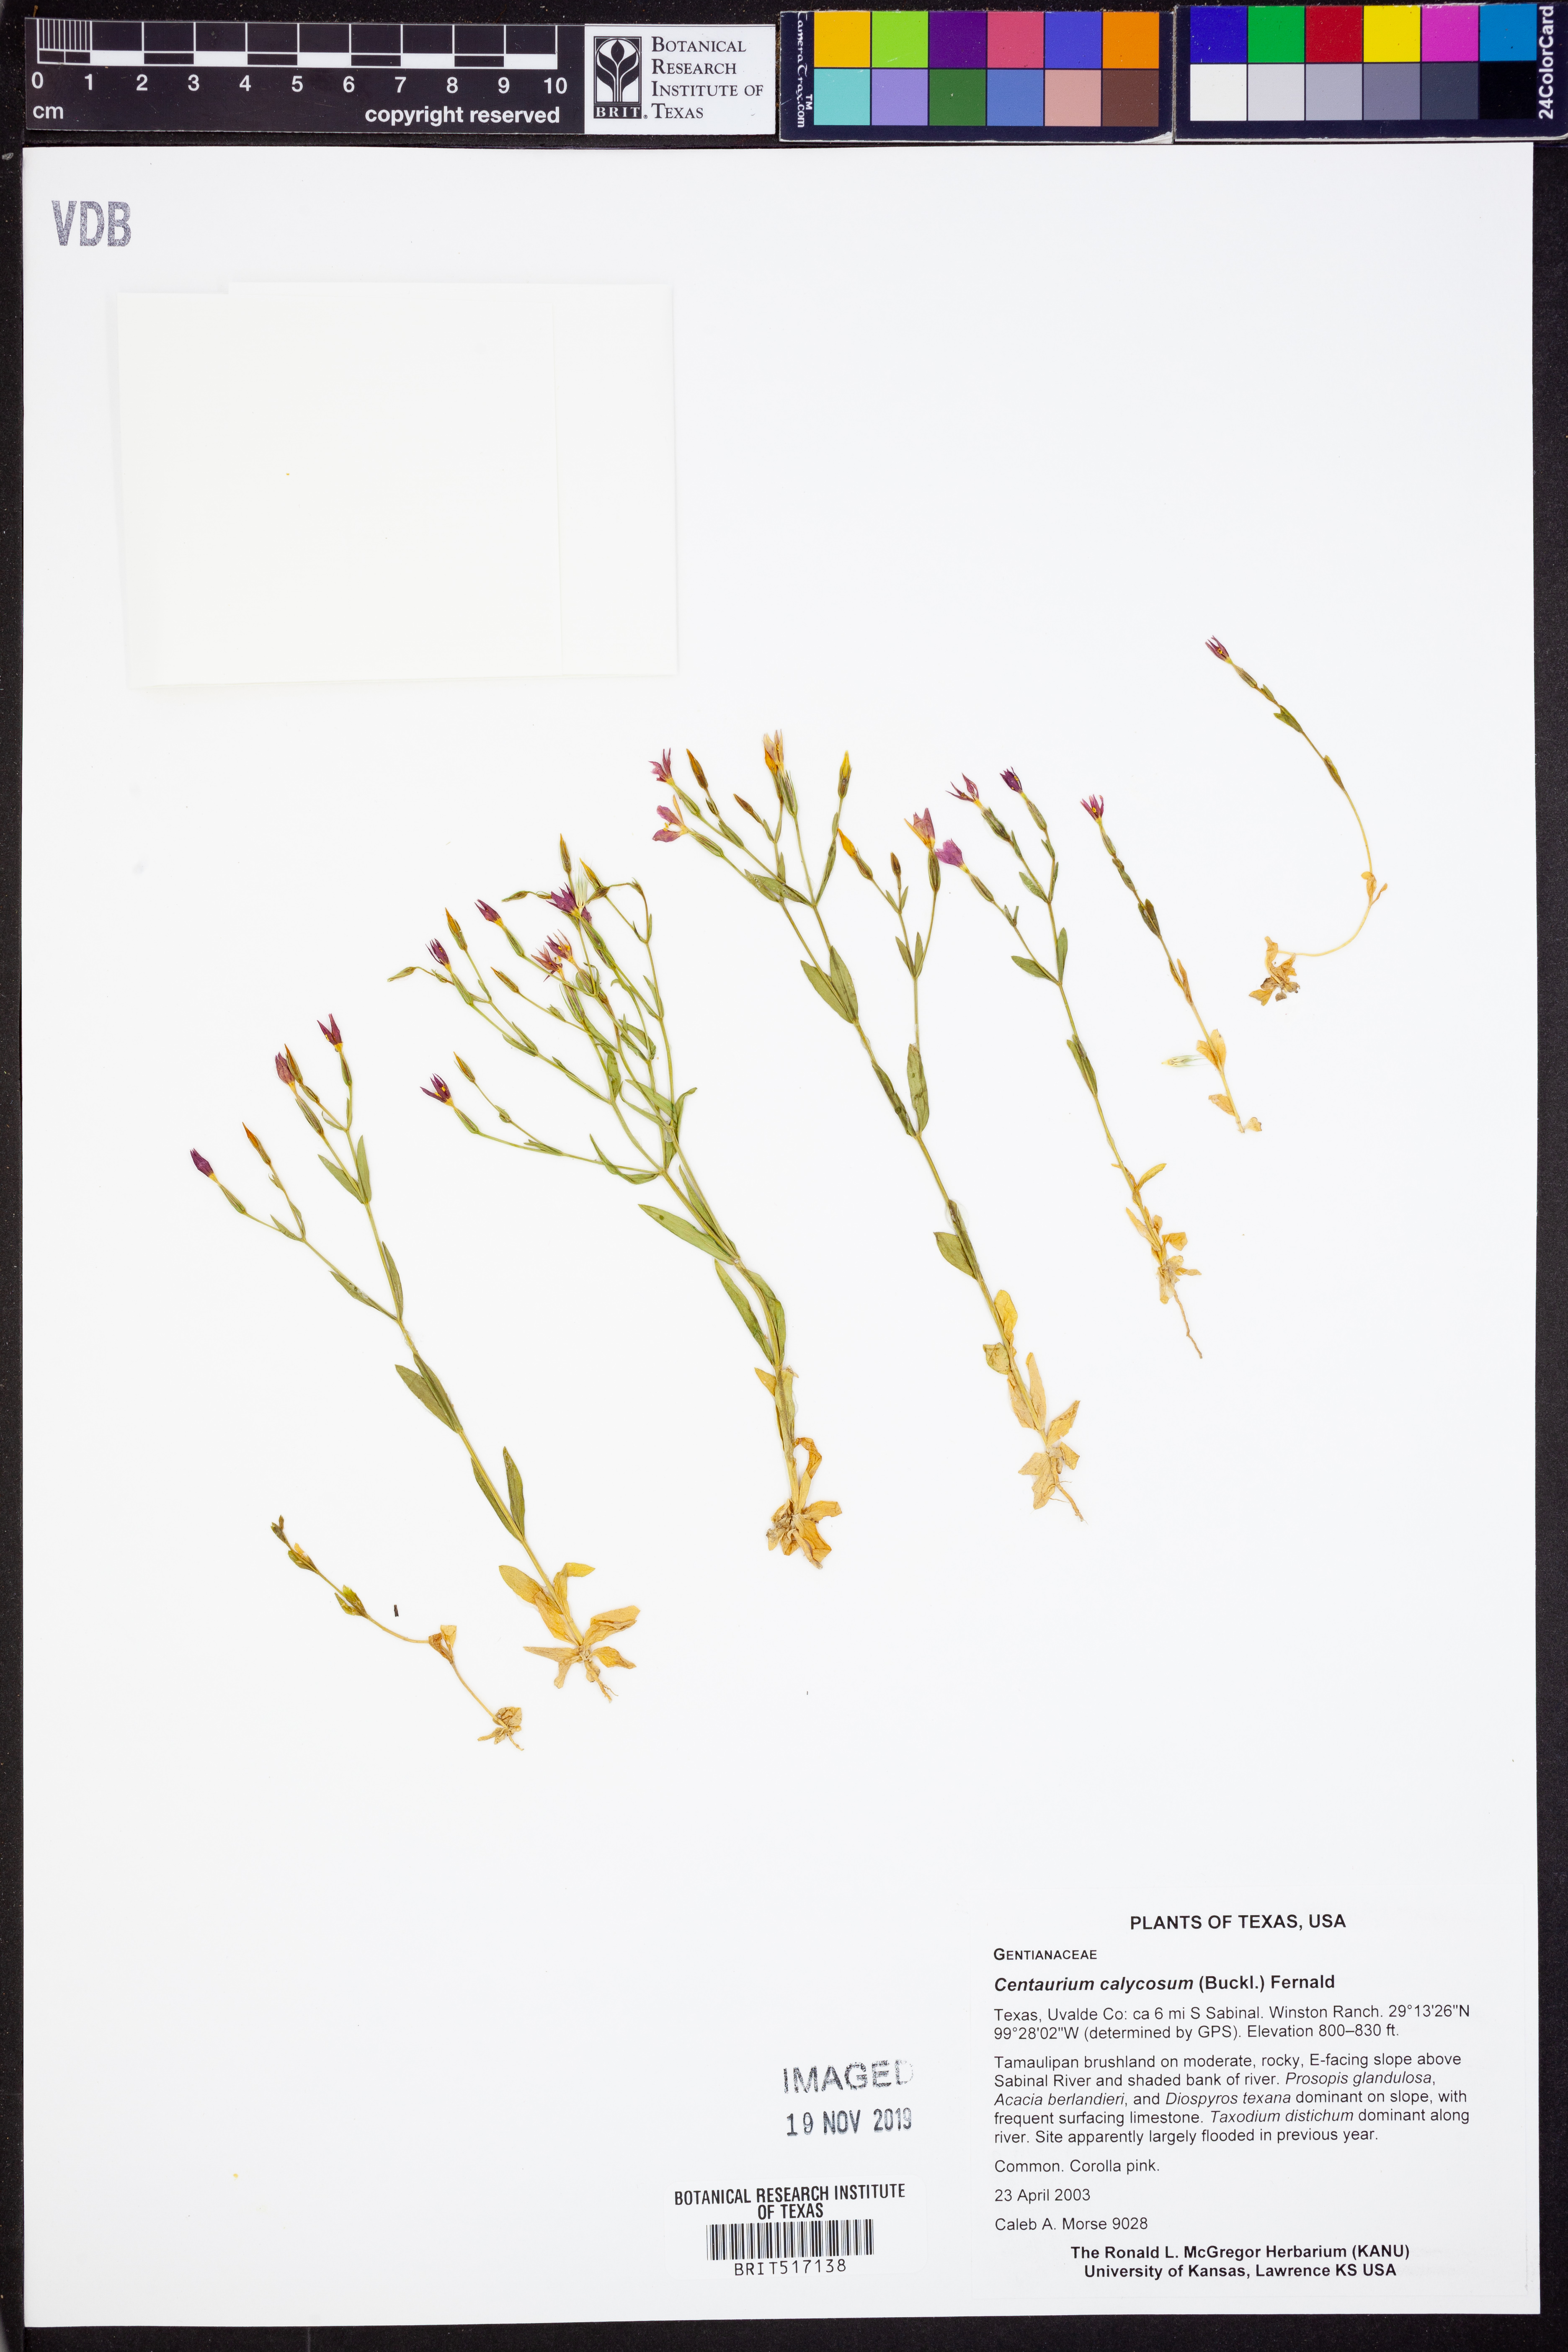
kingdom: Plantae
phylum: Tracheophyta
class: Magnoliopsida
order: Gentianales
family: Gentianaceae
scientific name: Gentianaceae
